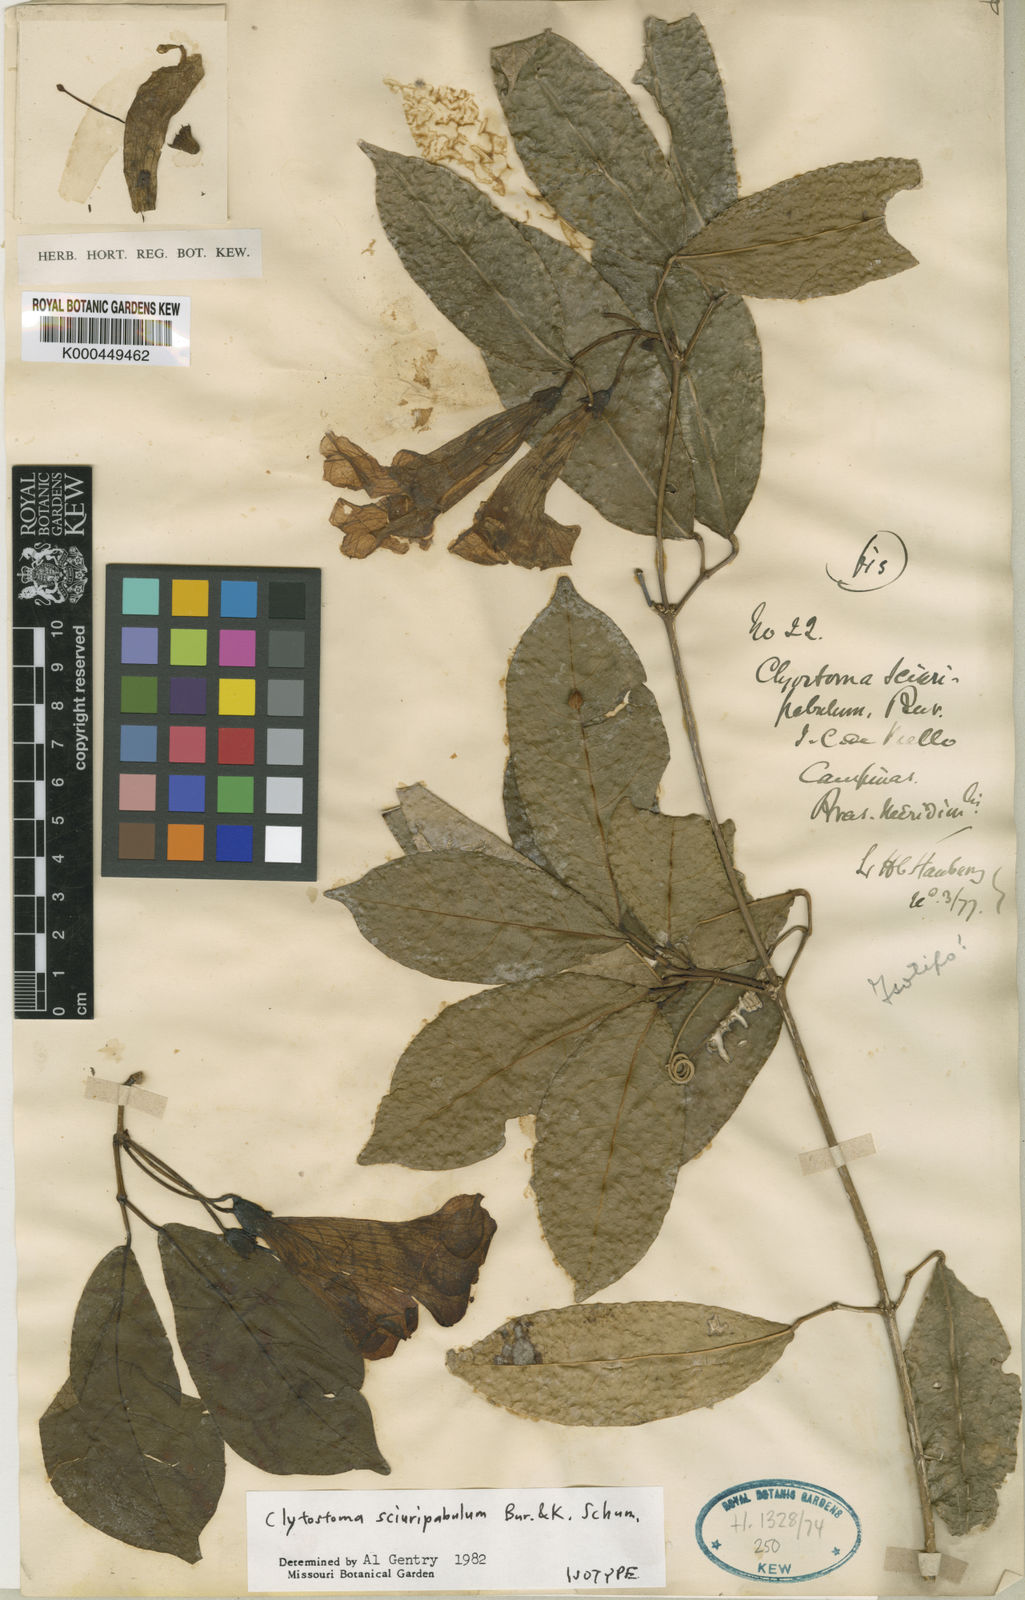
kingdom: Plantae
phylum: Tracheophyta
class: Magnoliopsida
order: Lamiales
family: Bignoniaceae
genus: Bignonia
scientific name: Bignonia
